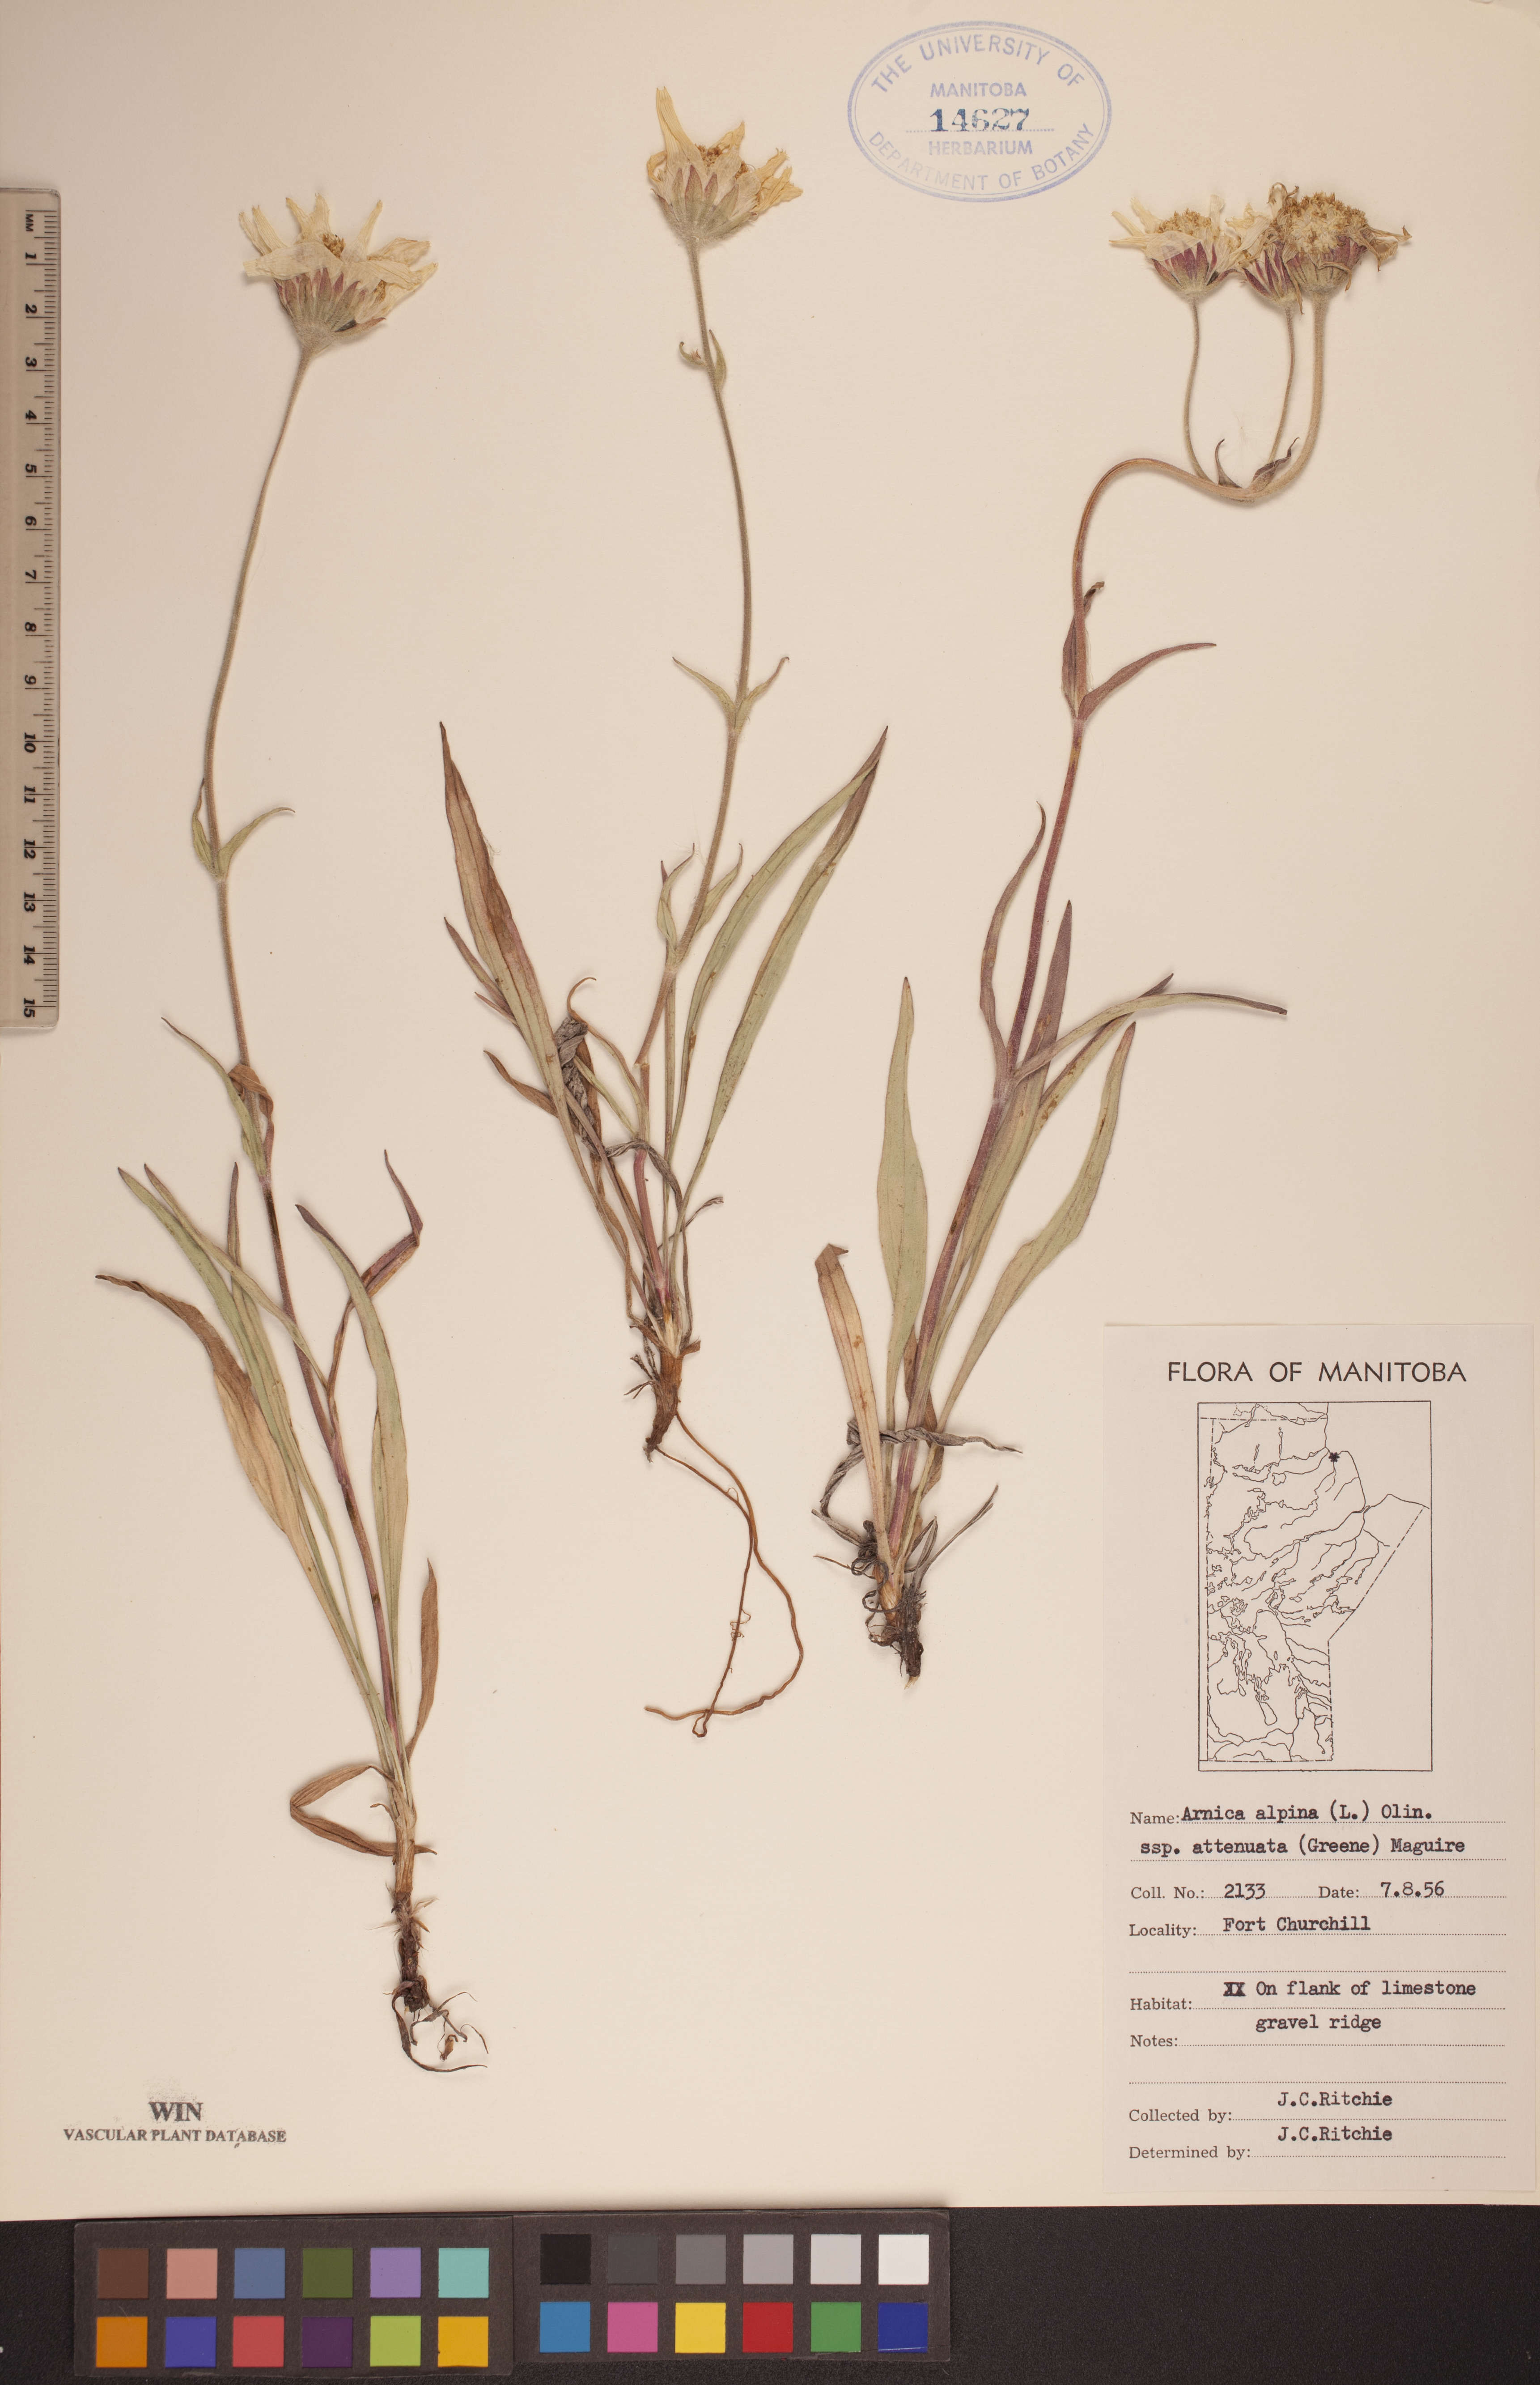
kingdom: Plantae
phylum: Tracheophyta
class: Magnoliopsida
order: Asterales
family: Asteraceae
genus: Arnica
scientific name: Arnica angustifolia
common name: Arctic arnica
